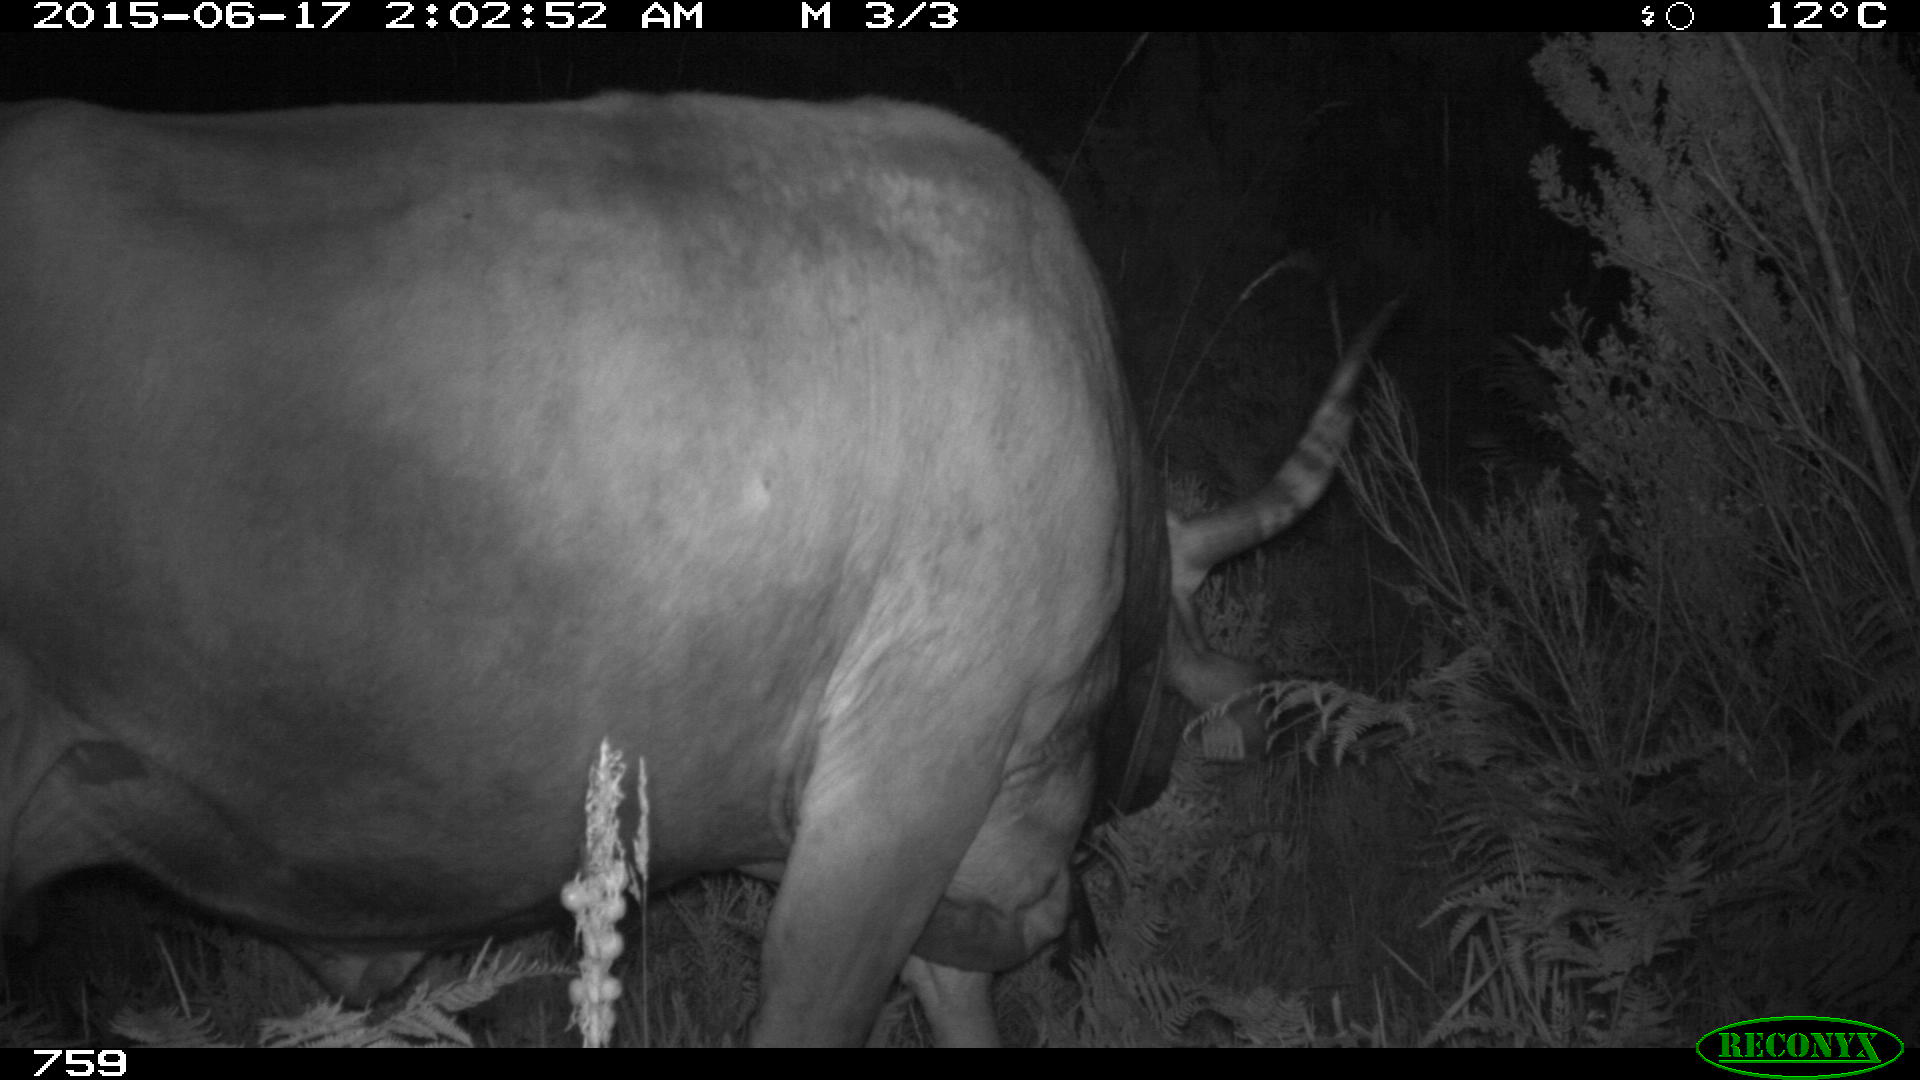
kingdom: Animalia
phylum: Chordata
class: Mammalia
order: Artiodactyla
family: Bovidae
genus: Bos
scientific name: Bos taurus
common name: Domesticated cattle
